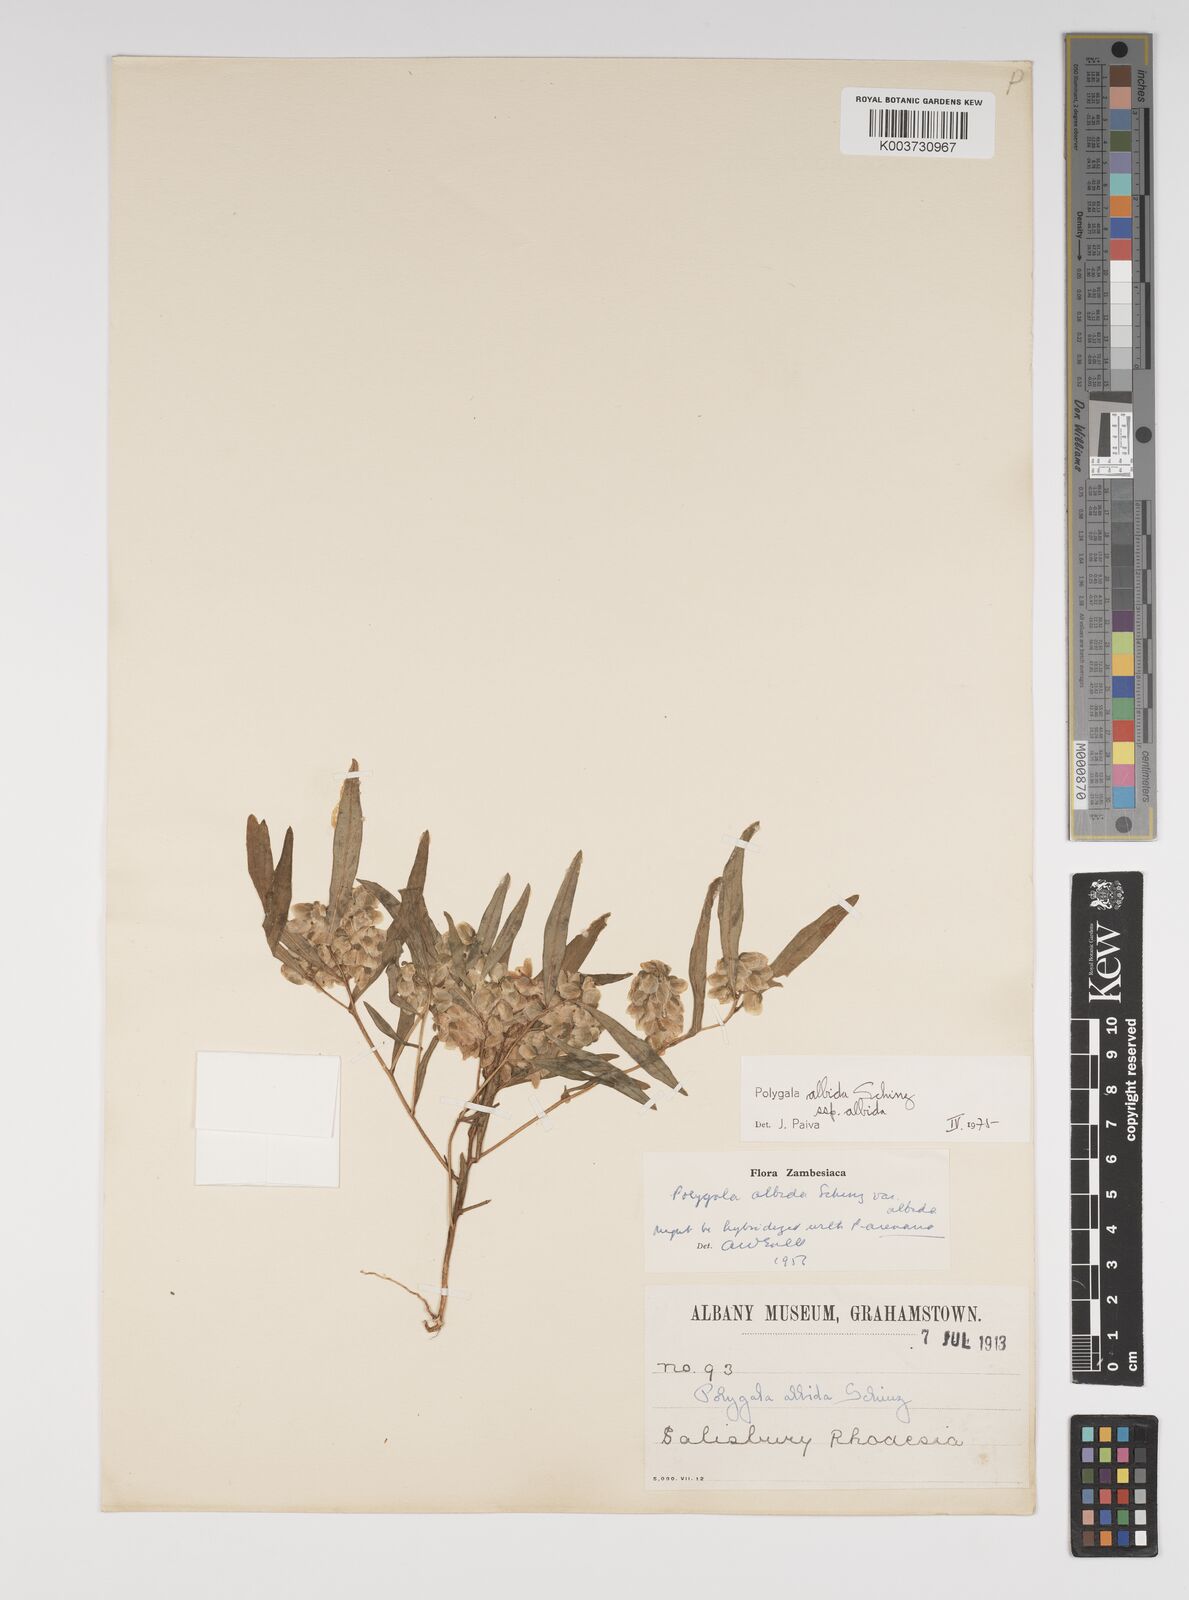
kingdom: Plantae
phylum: Tracheophyta
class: Magnoliopsida
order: Fabales
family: Polygalaceae
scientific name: Polygalaceae
